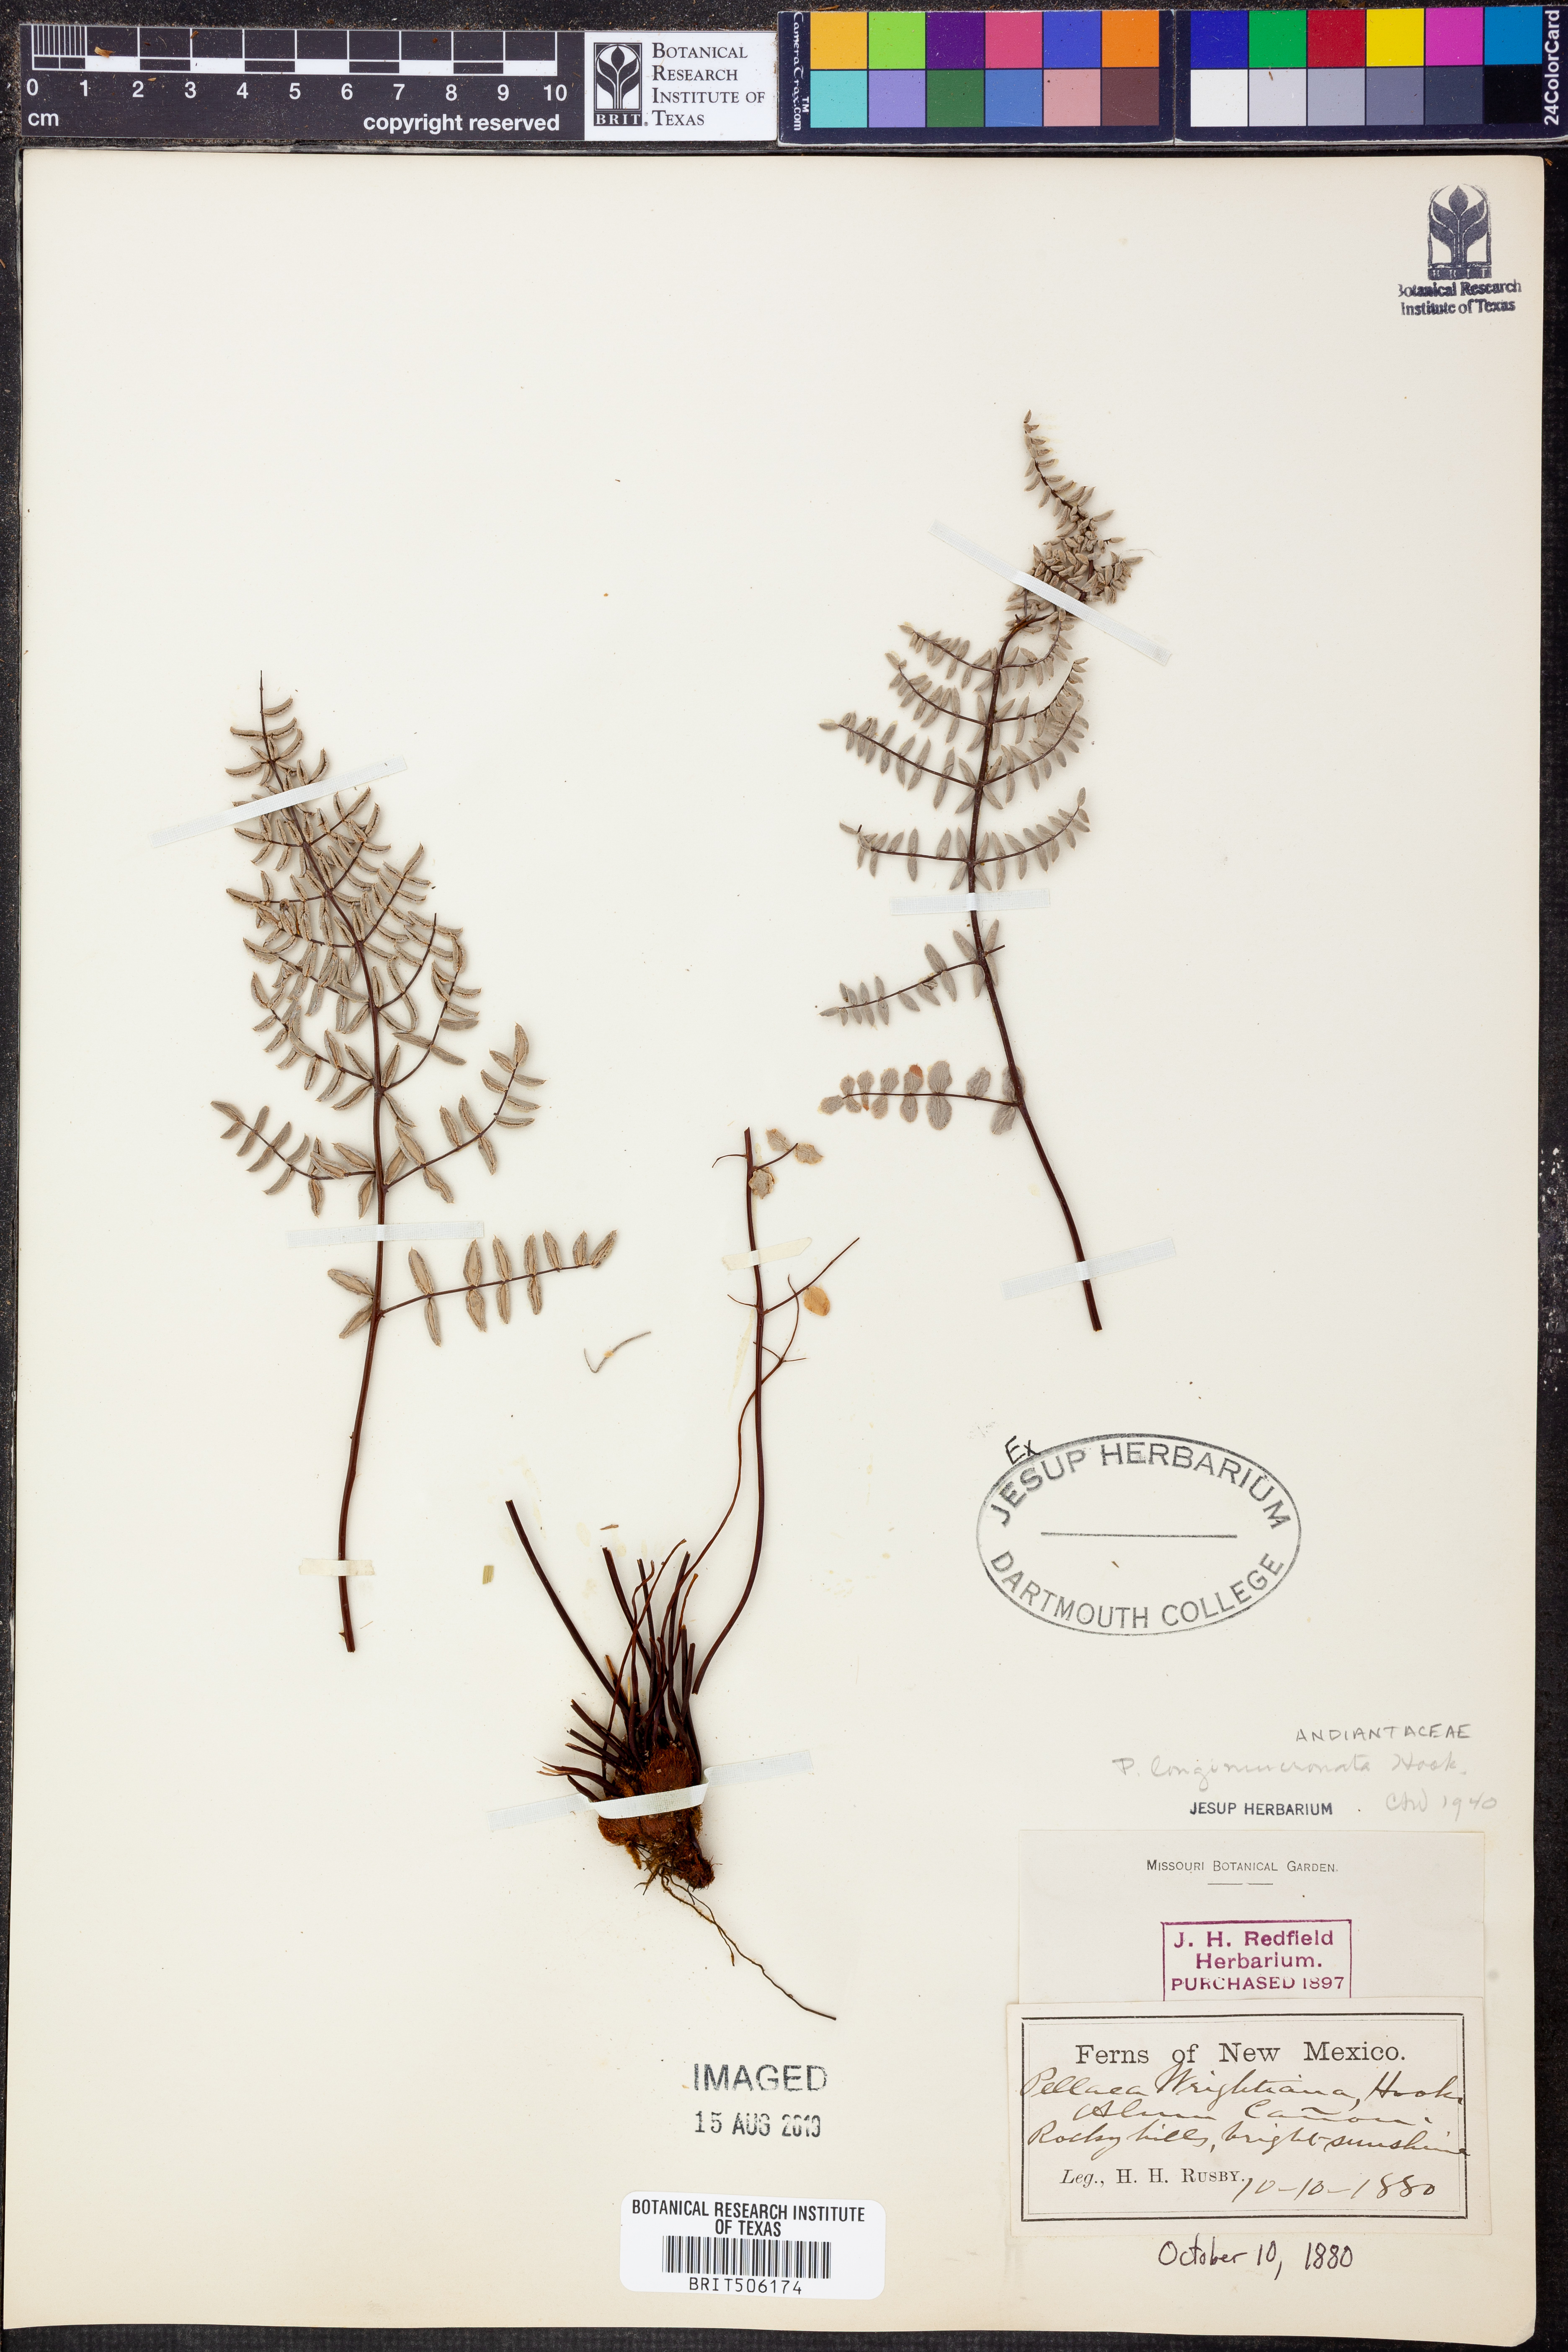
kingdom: Plantae
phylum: Tracheophyta
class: Polypodiopsida
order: Polypodiales
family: Pteridaceae
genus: Pellaea
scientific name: Pellaea mucronata
